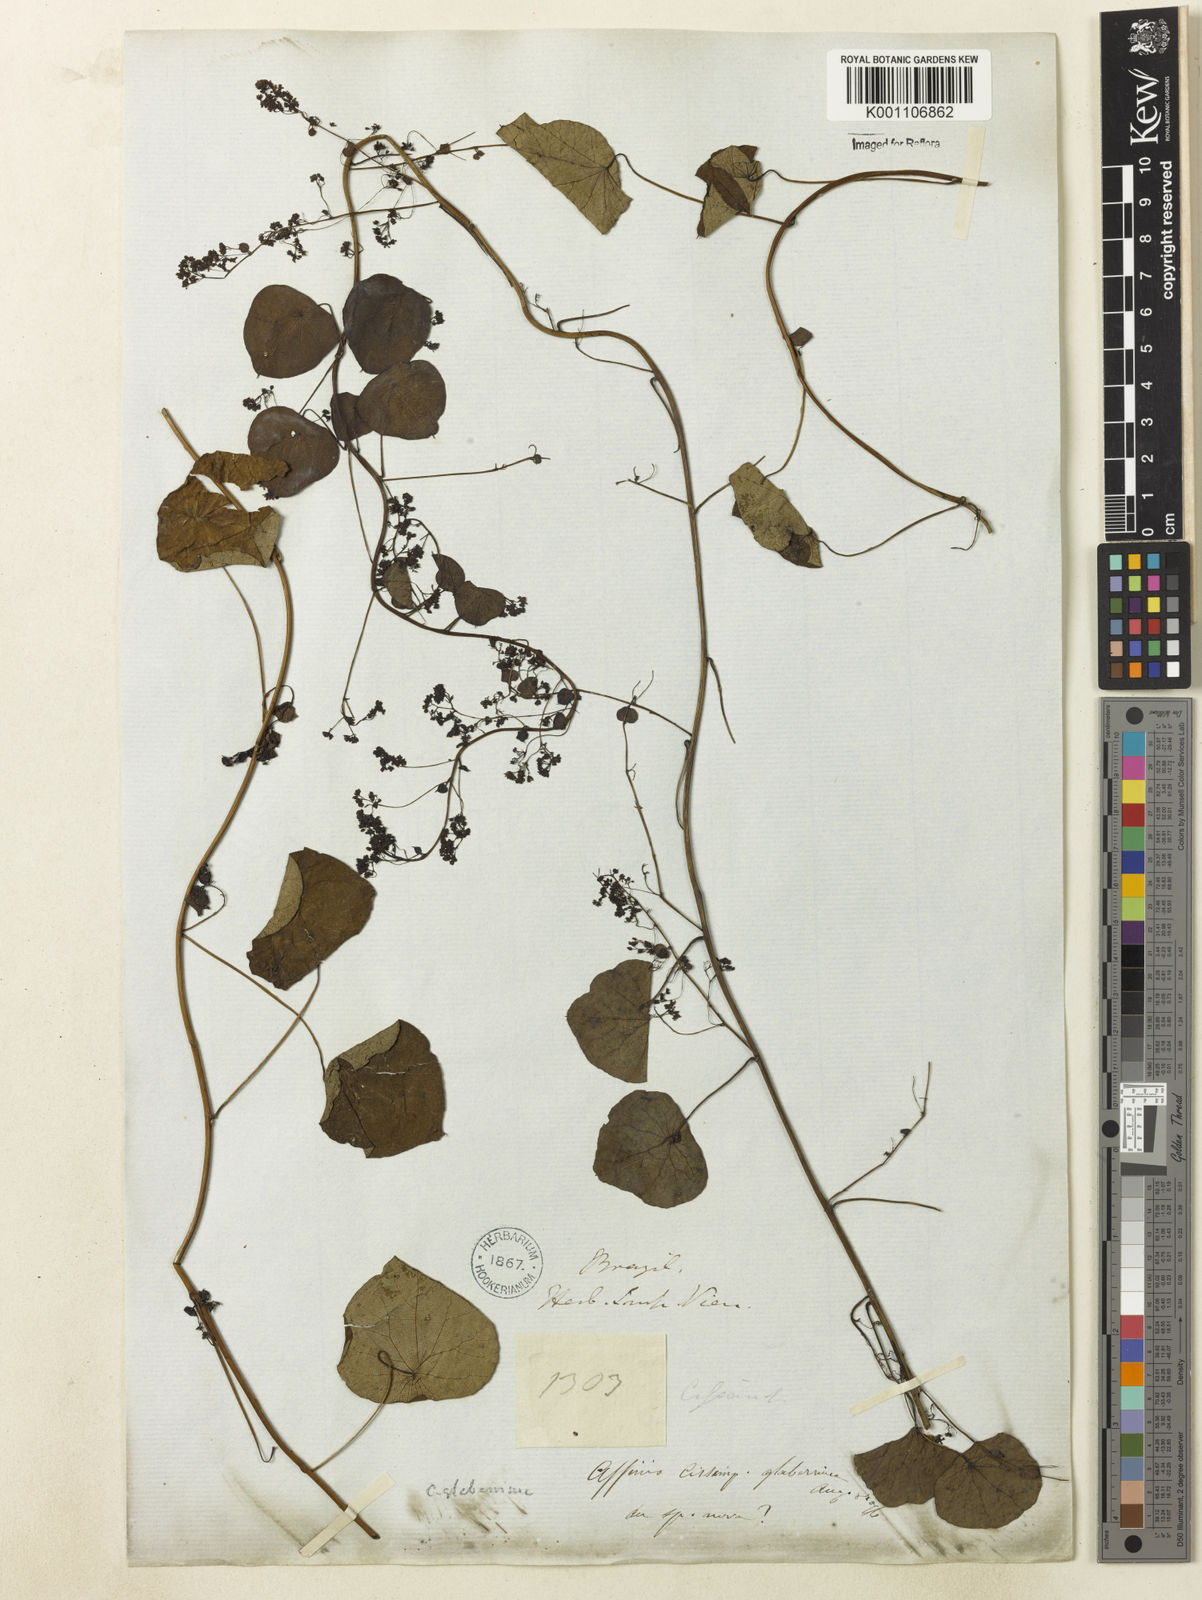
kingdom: Plantae
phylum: Tracheophyta
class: Magnoliopsida
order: Ranunculales
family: Menispermaceae
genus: Cissampelos
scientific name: Cissampelos glaberrima
